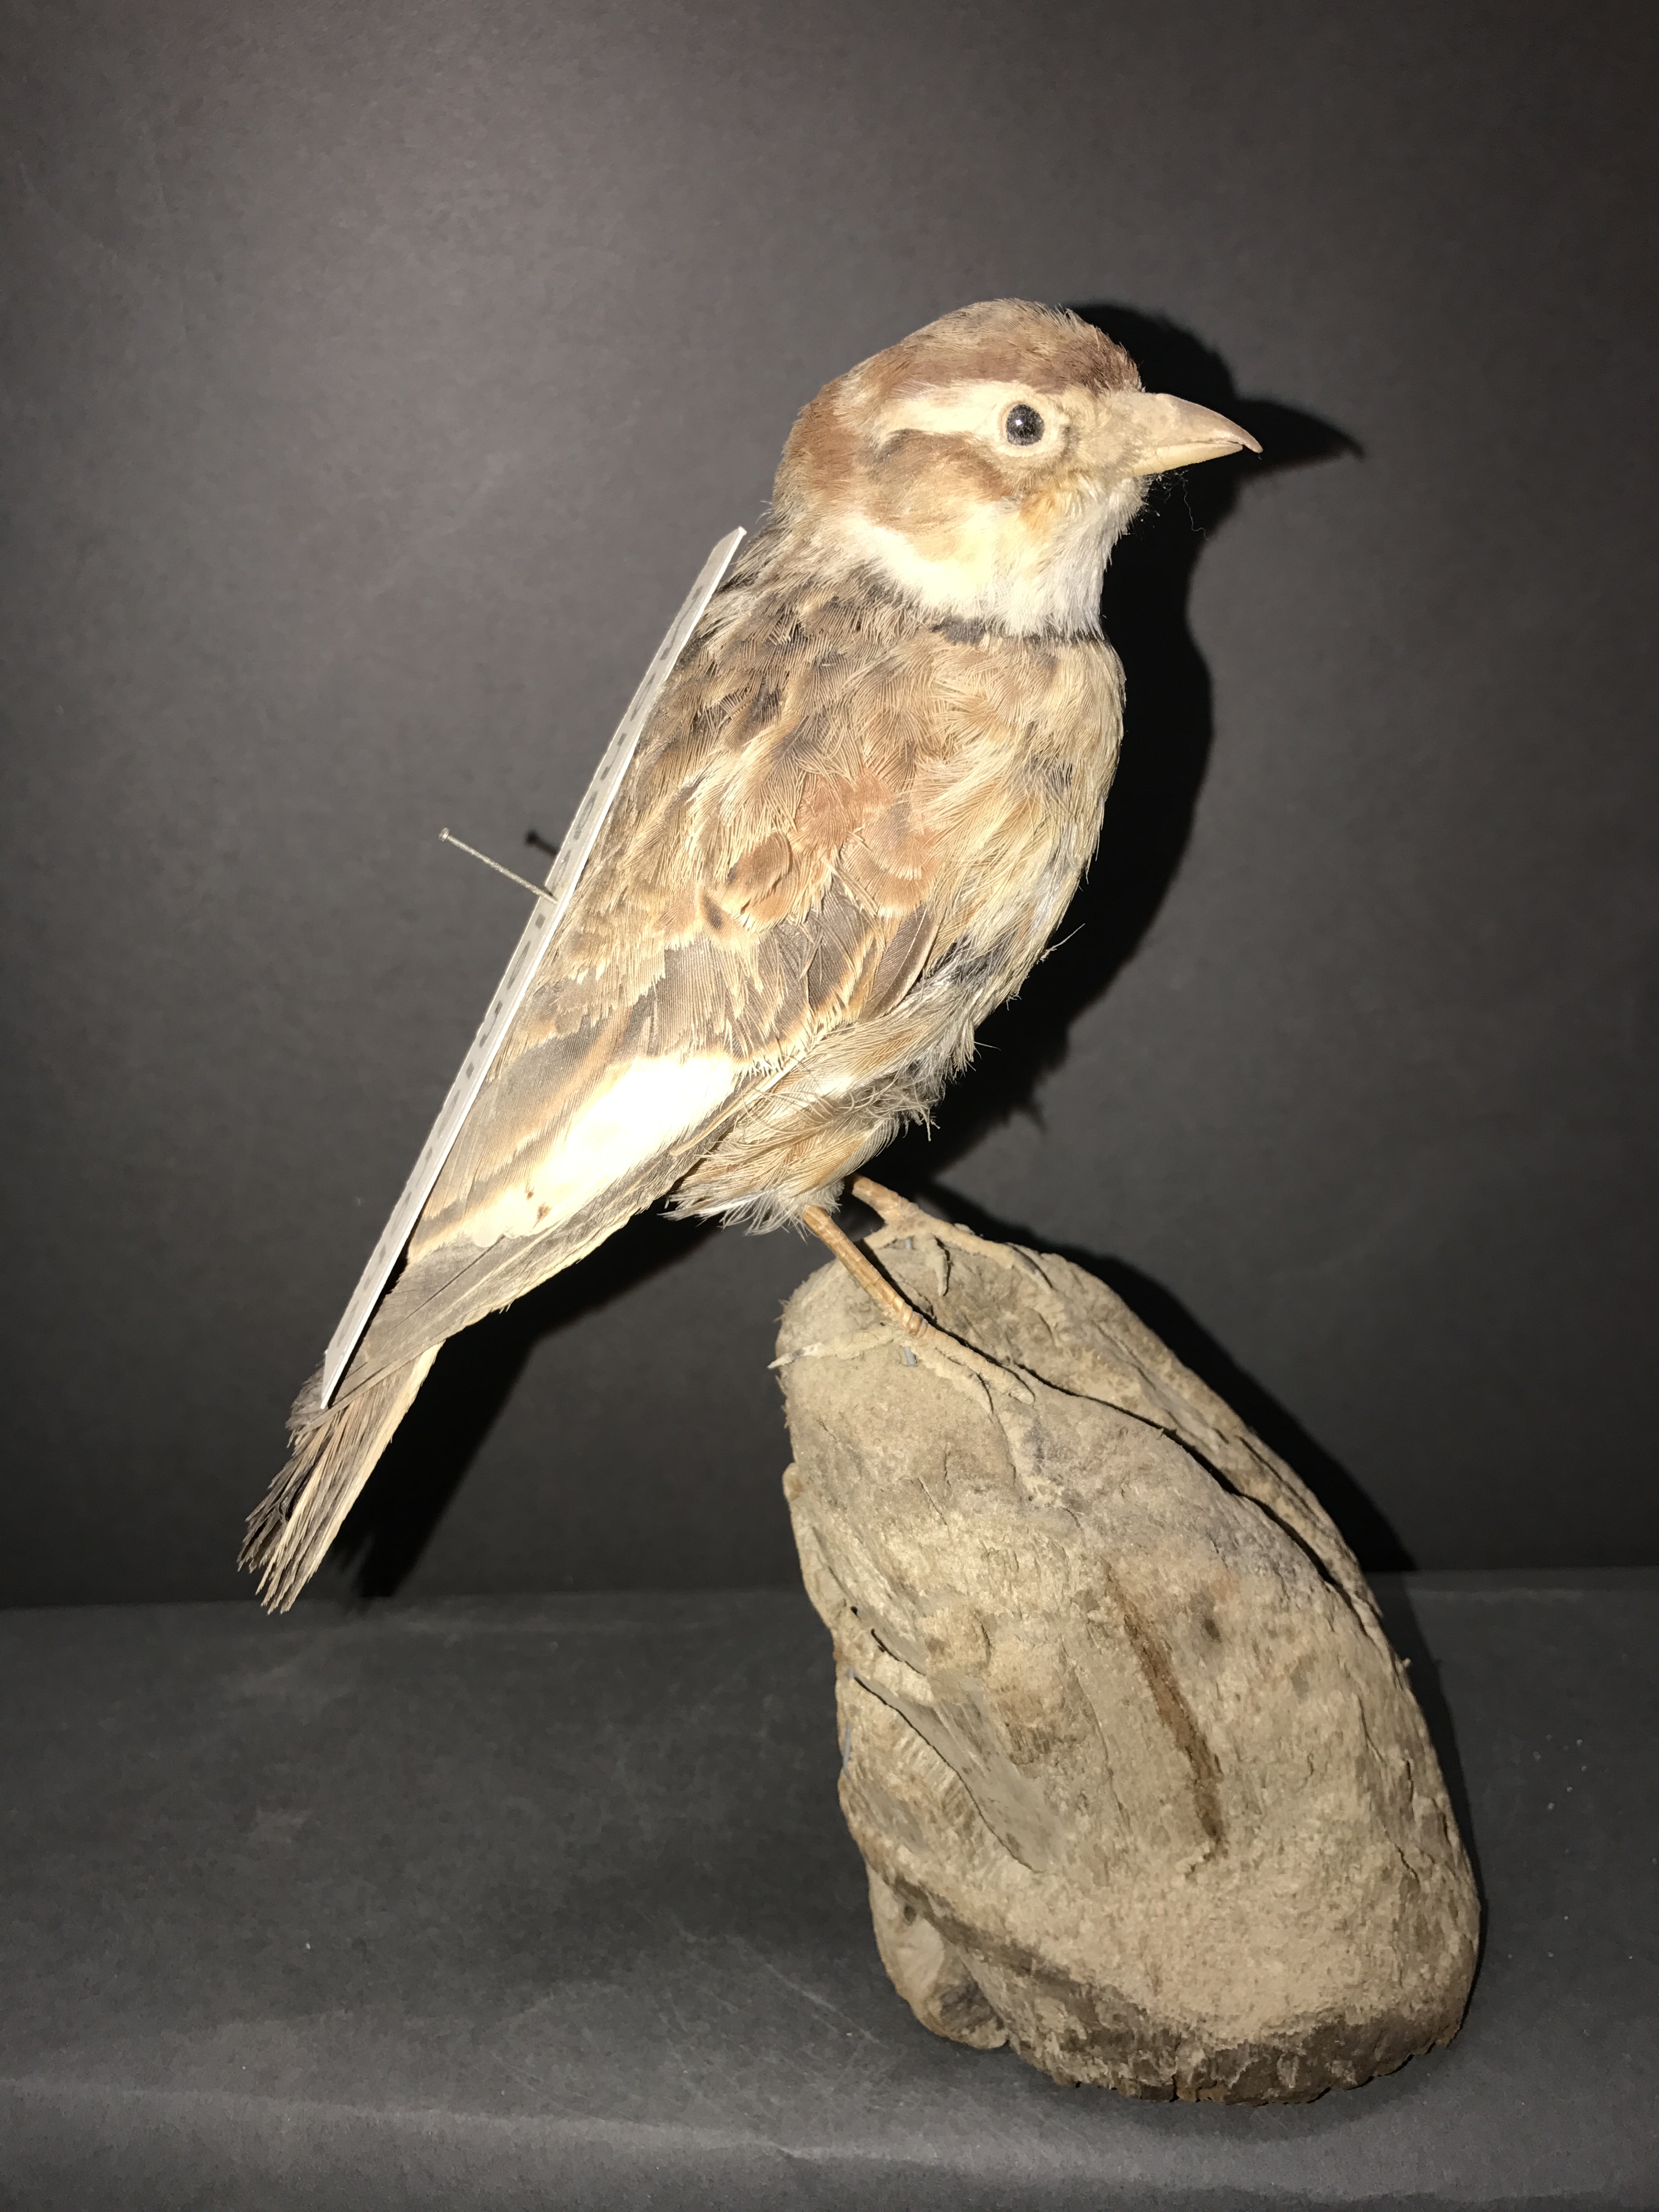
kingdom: Animalia
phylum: Chordata
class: Aves
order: Passeriformes
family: Alaudidae
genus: Melanocorypha
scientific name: Melanocorypha mongolica
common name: Mongolian lark
